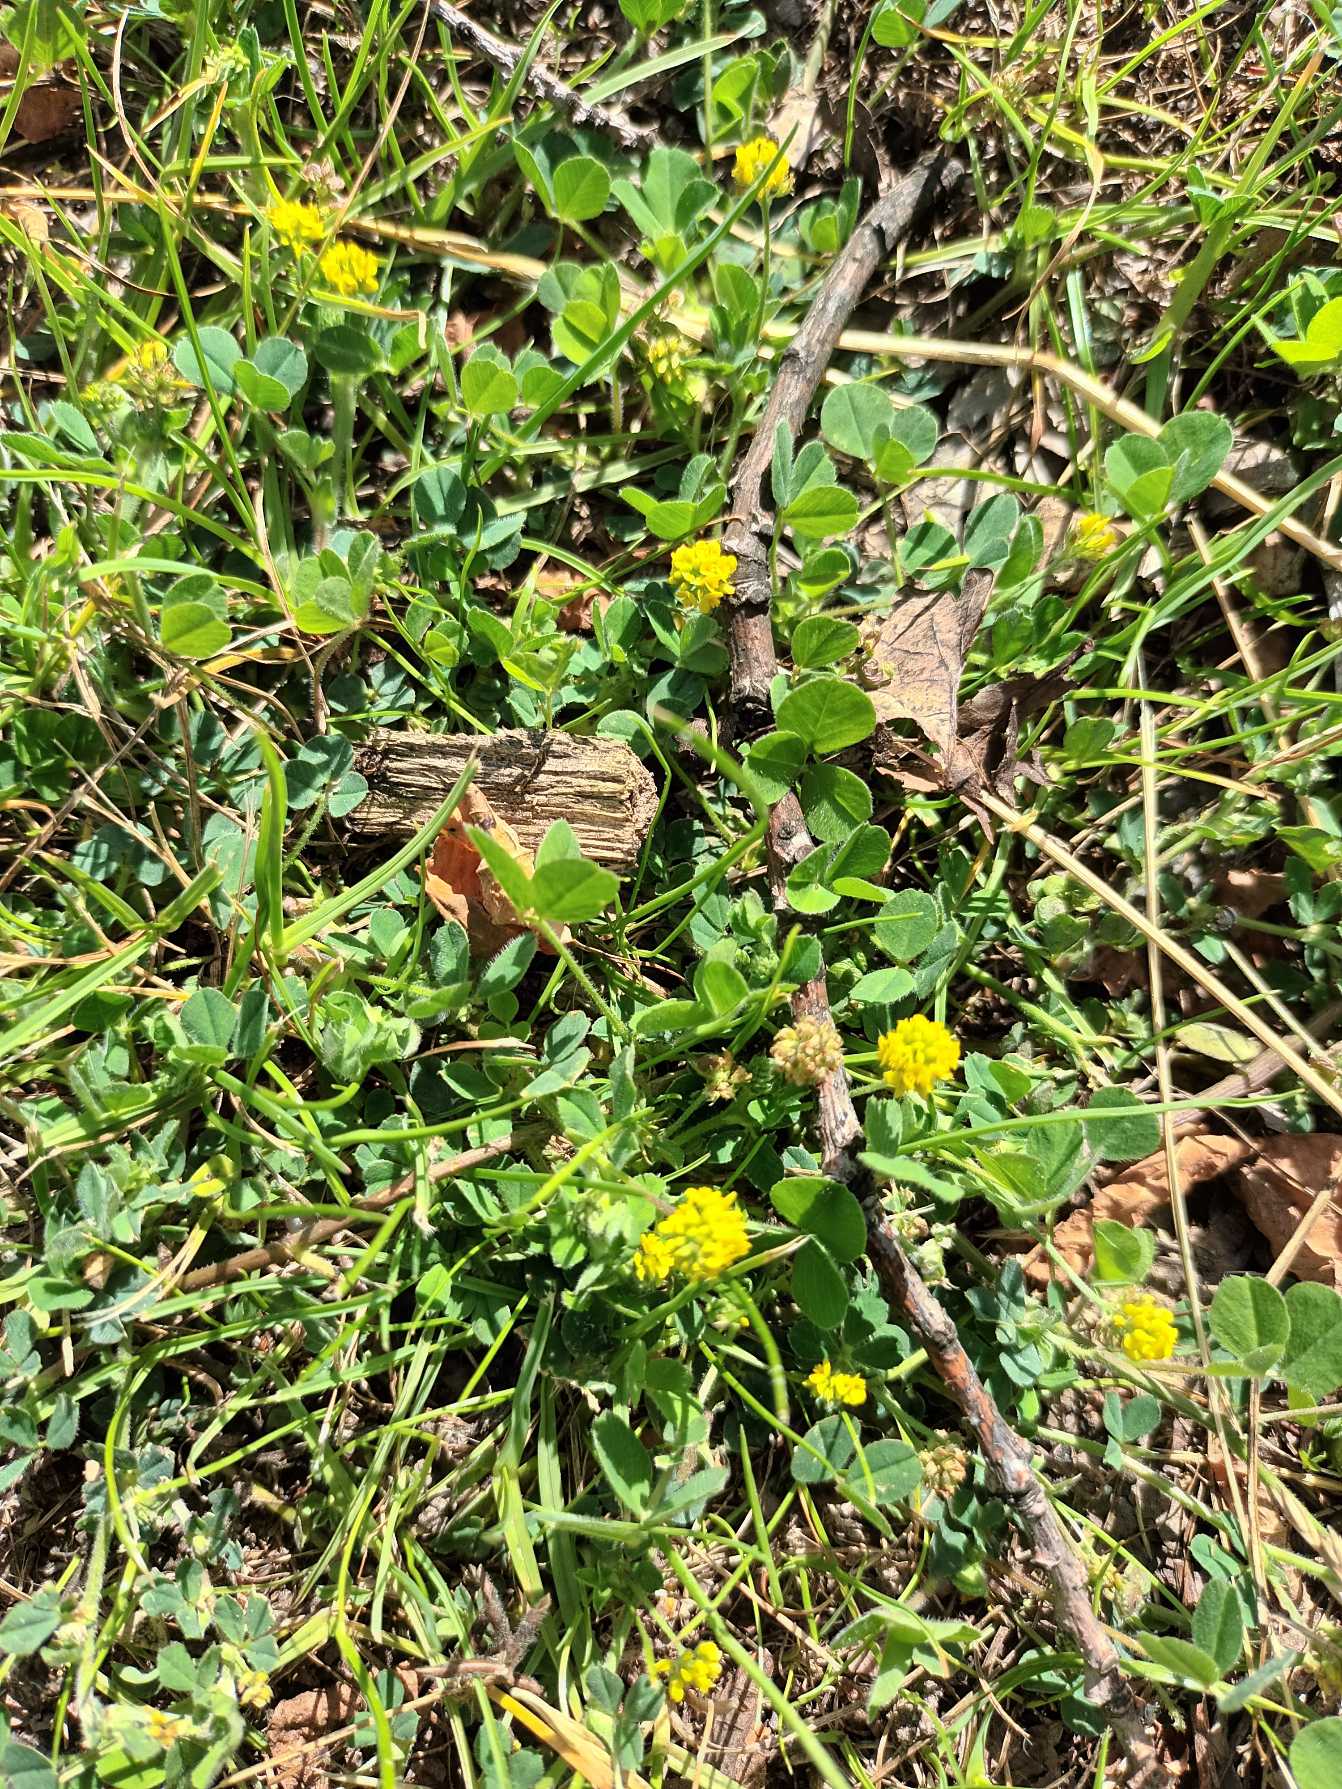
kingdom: Plantae
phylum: Tracheophyta
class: Magnoliopsida
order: Fabales
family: Fabaceae
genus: Medicago
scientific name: Medicago lupulina
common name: Humle-sneglebælg
